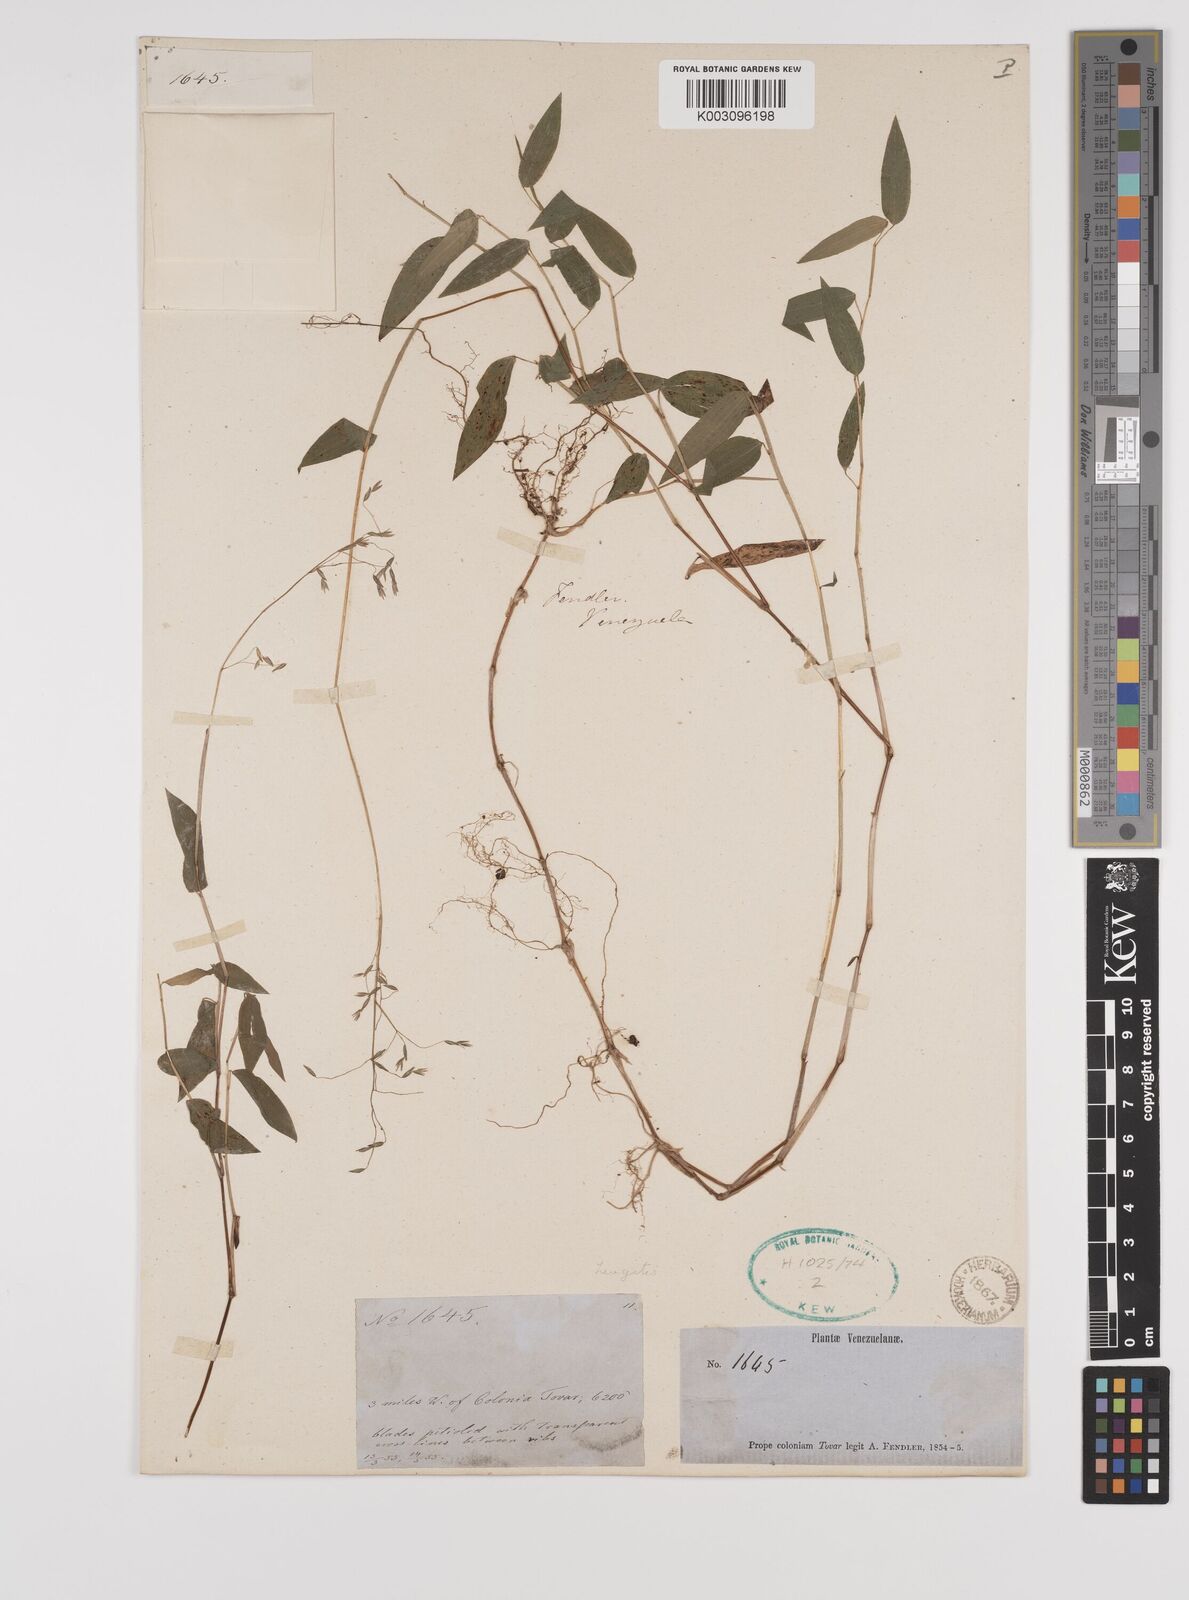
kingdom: Plantae
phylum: Tracheophyta
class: Liliopsida
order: Poales
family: Poaceae
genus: Zeugites
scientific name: Zeugites americanus
